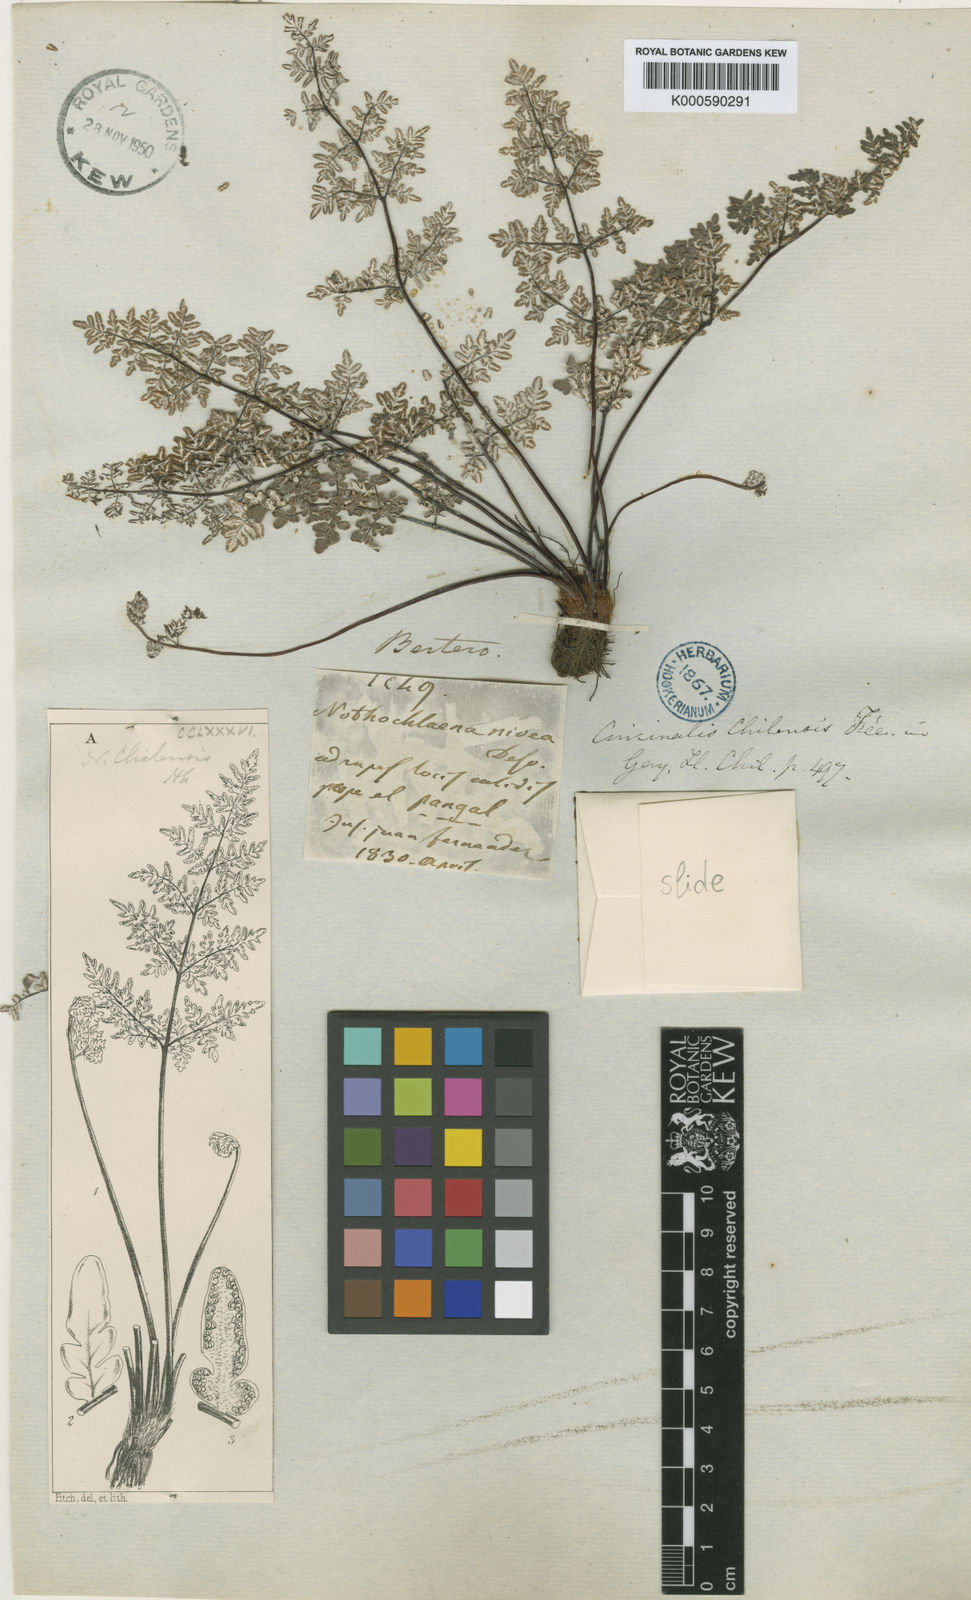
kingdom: Plantae
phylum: Tracheophyta
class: Polypodiopsida
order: Polypodiales
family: Pteridaceae
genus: Pellaea
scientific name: Pellaea
